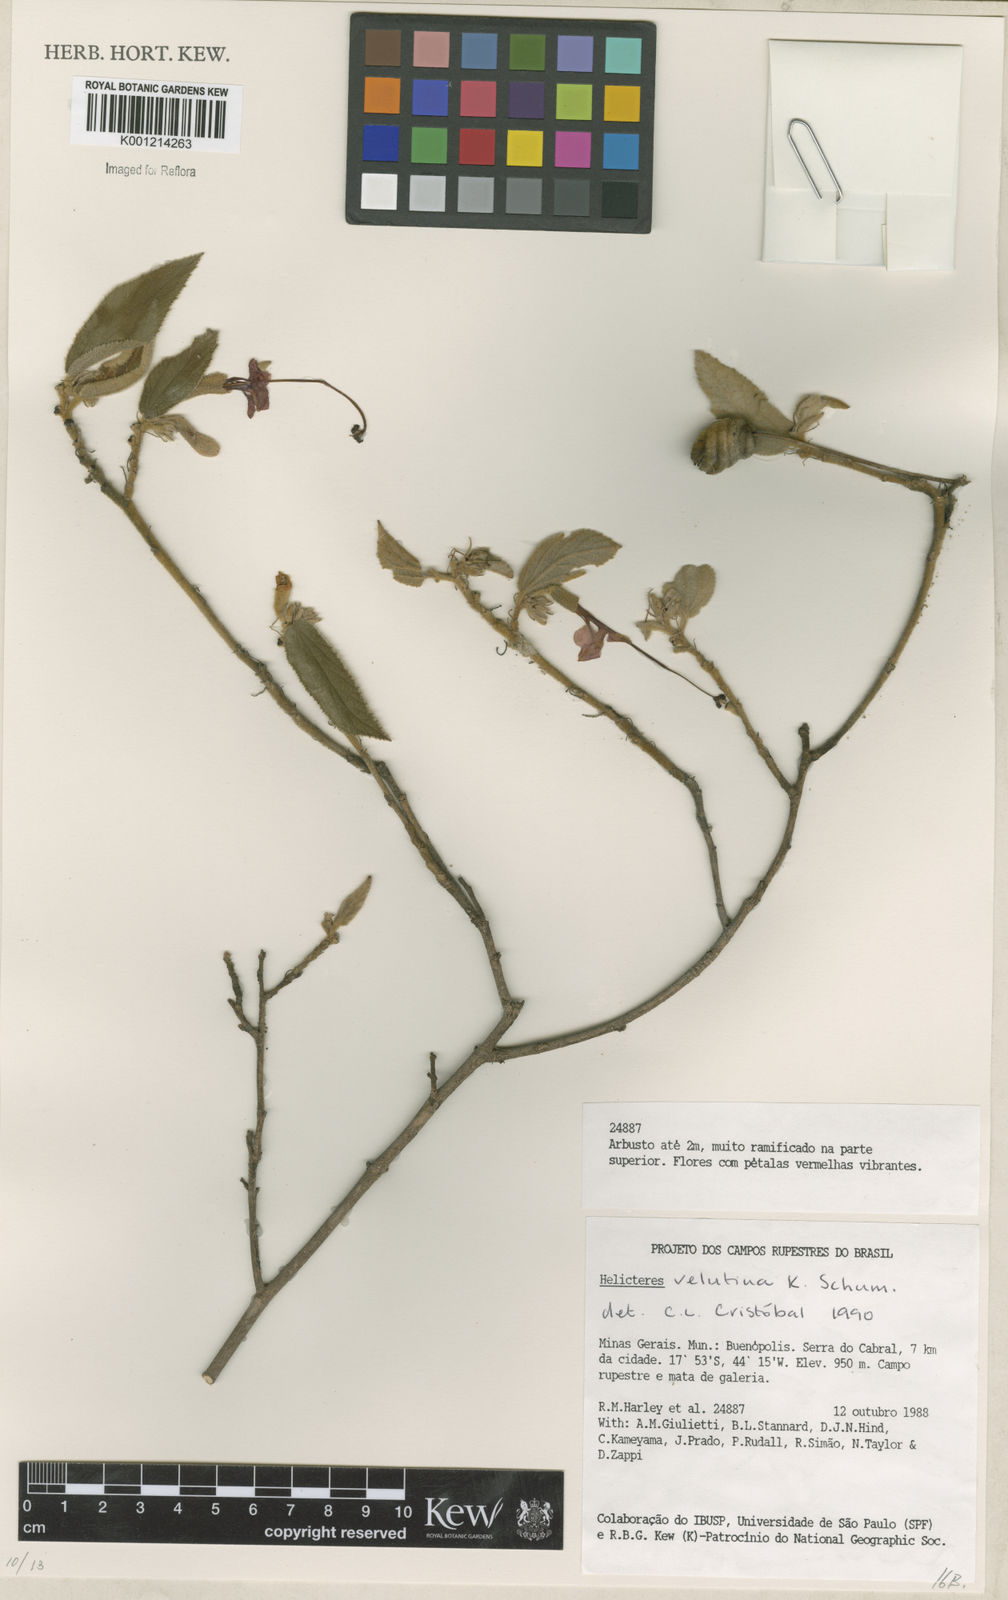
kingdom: Plantae
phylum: Tracheophyta
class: Magnoliopsida
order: Malvales
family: Malvaceae
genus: Helicteres
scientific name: Helicteres velutina
